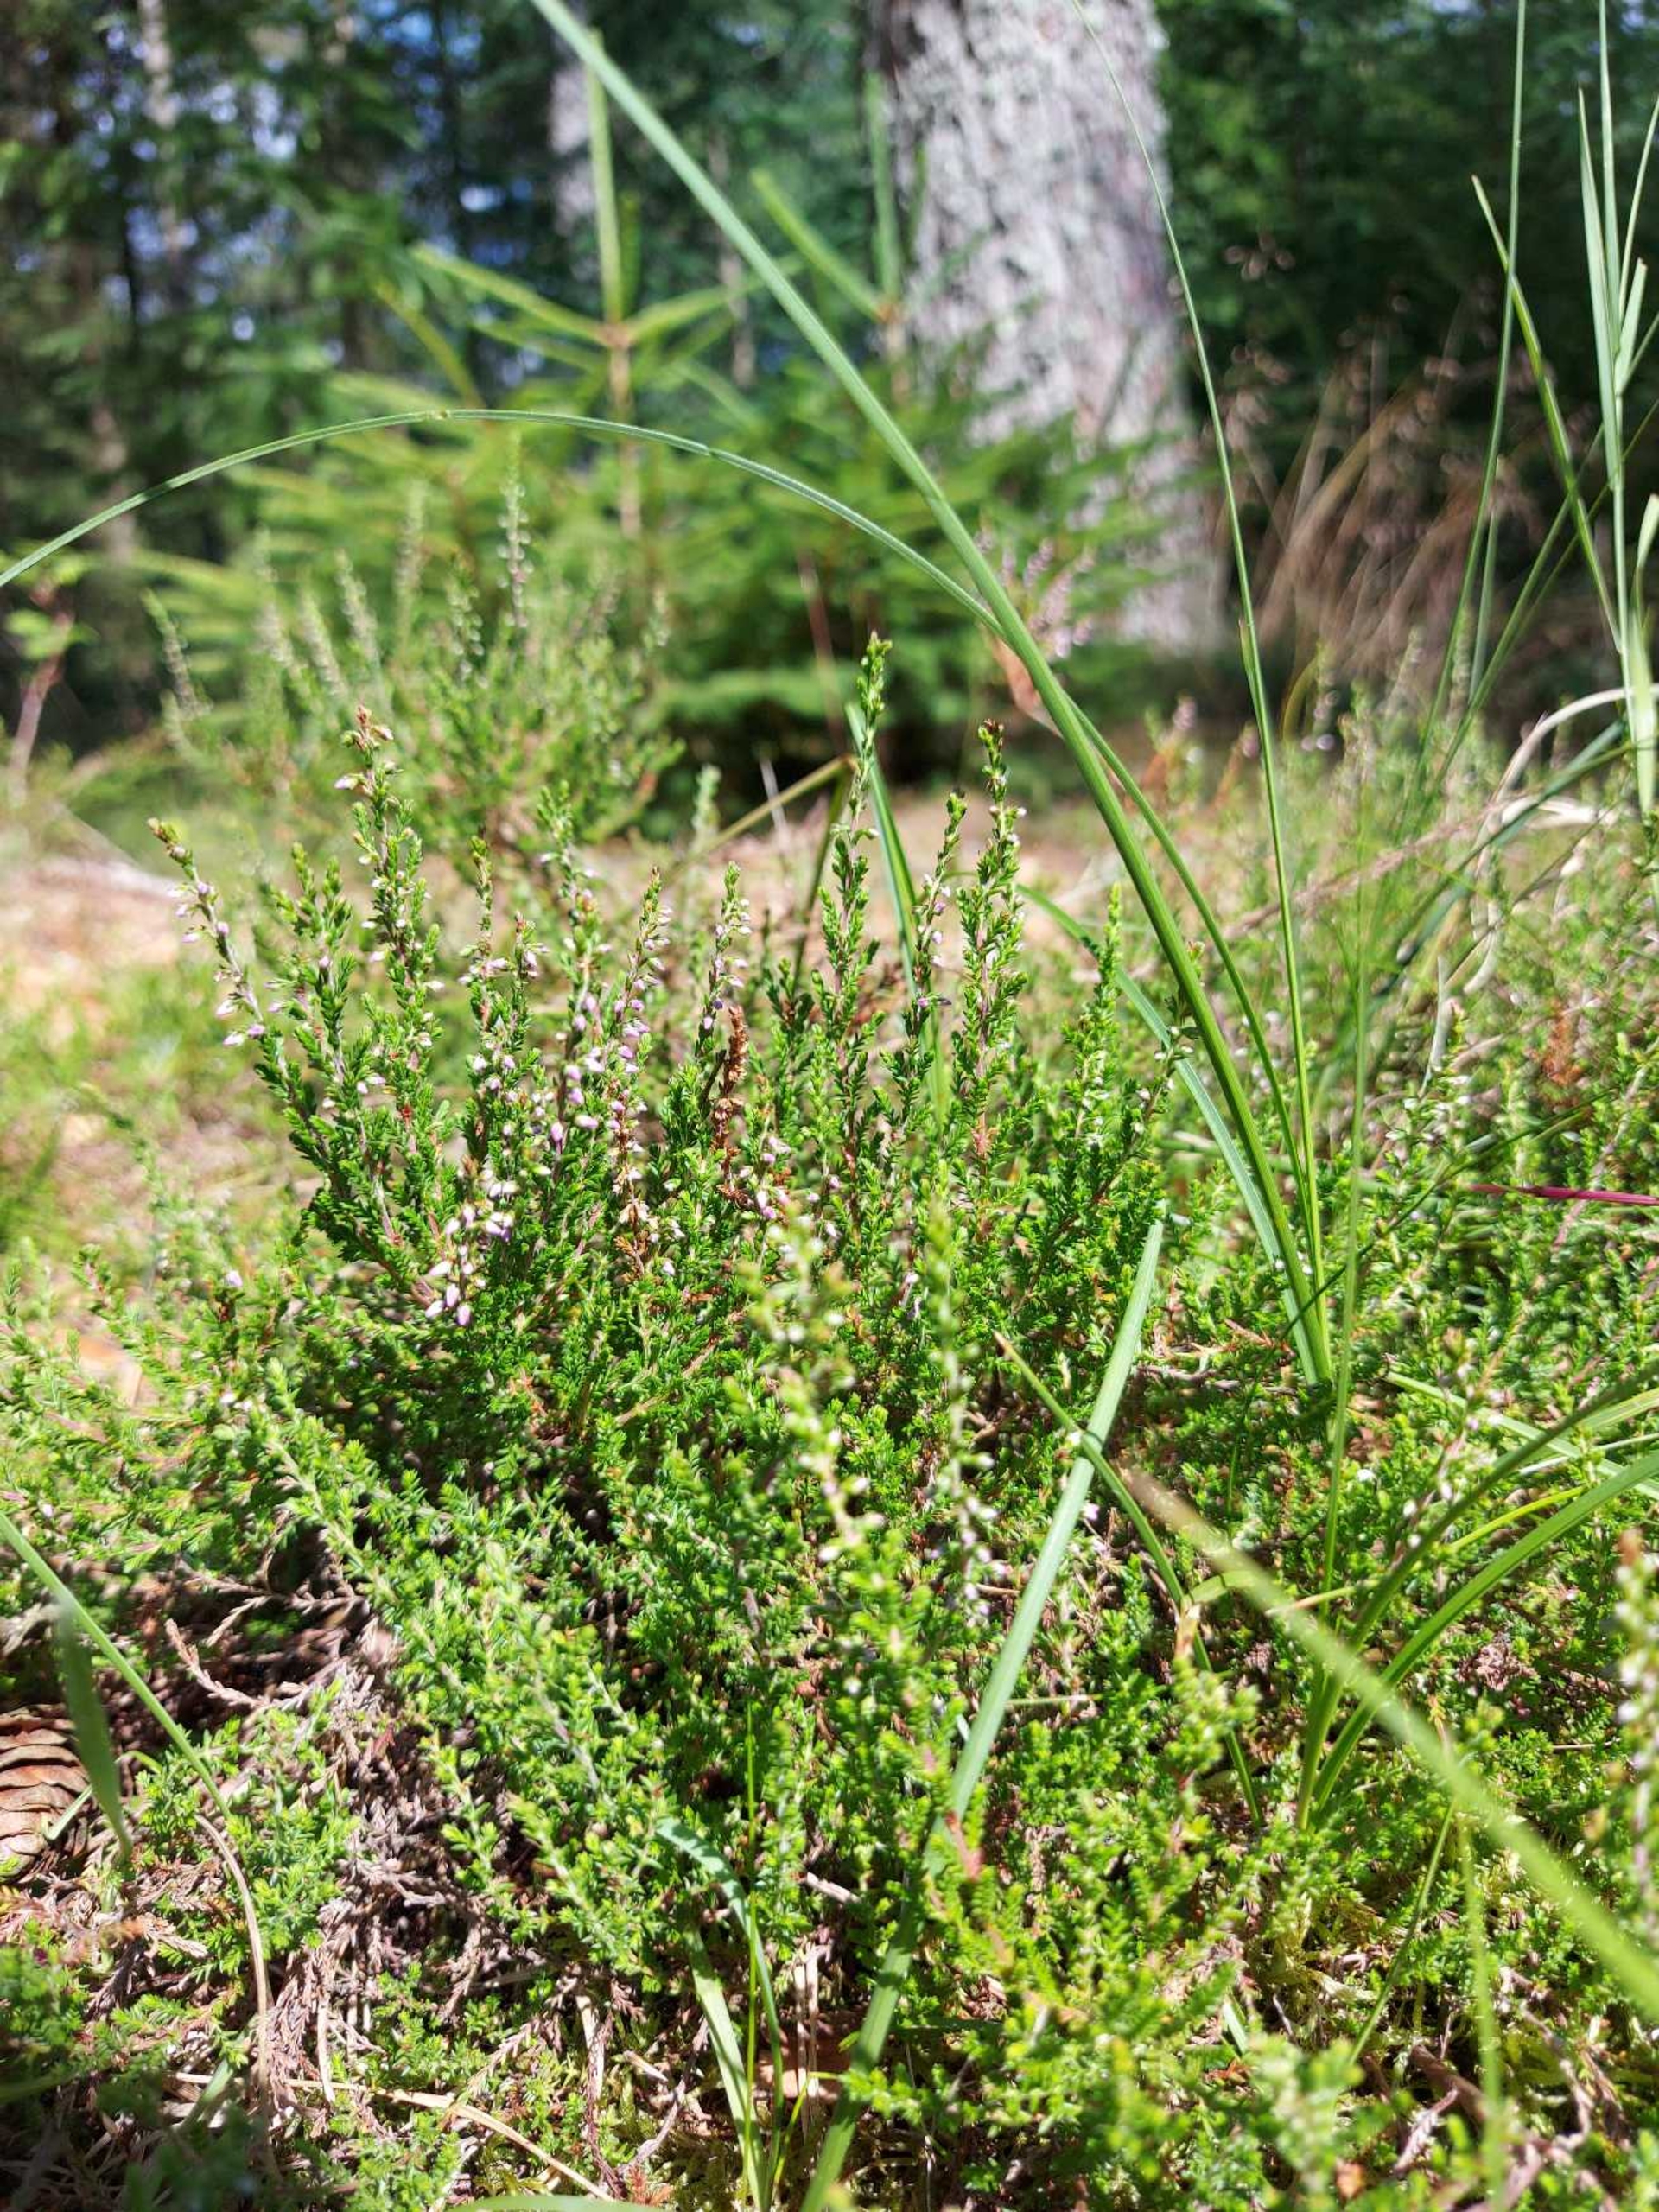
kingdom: Plantae
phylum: Tracheophyta
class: Magnoliopsida
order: Ericales
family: Ericaceae
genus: Calluna
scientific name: Calluna vulgaris
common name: Hedelyng
